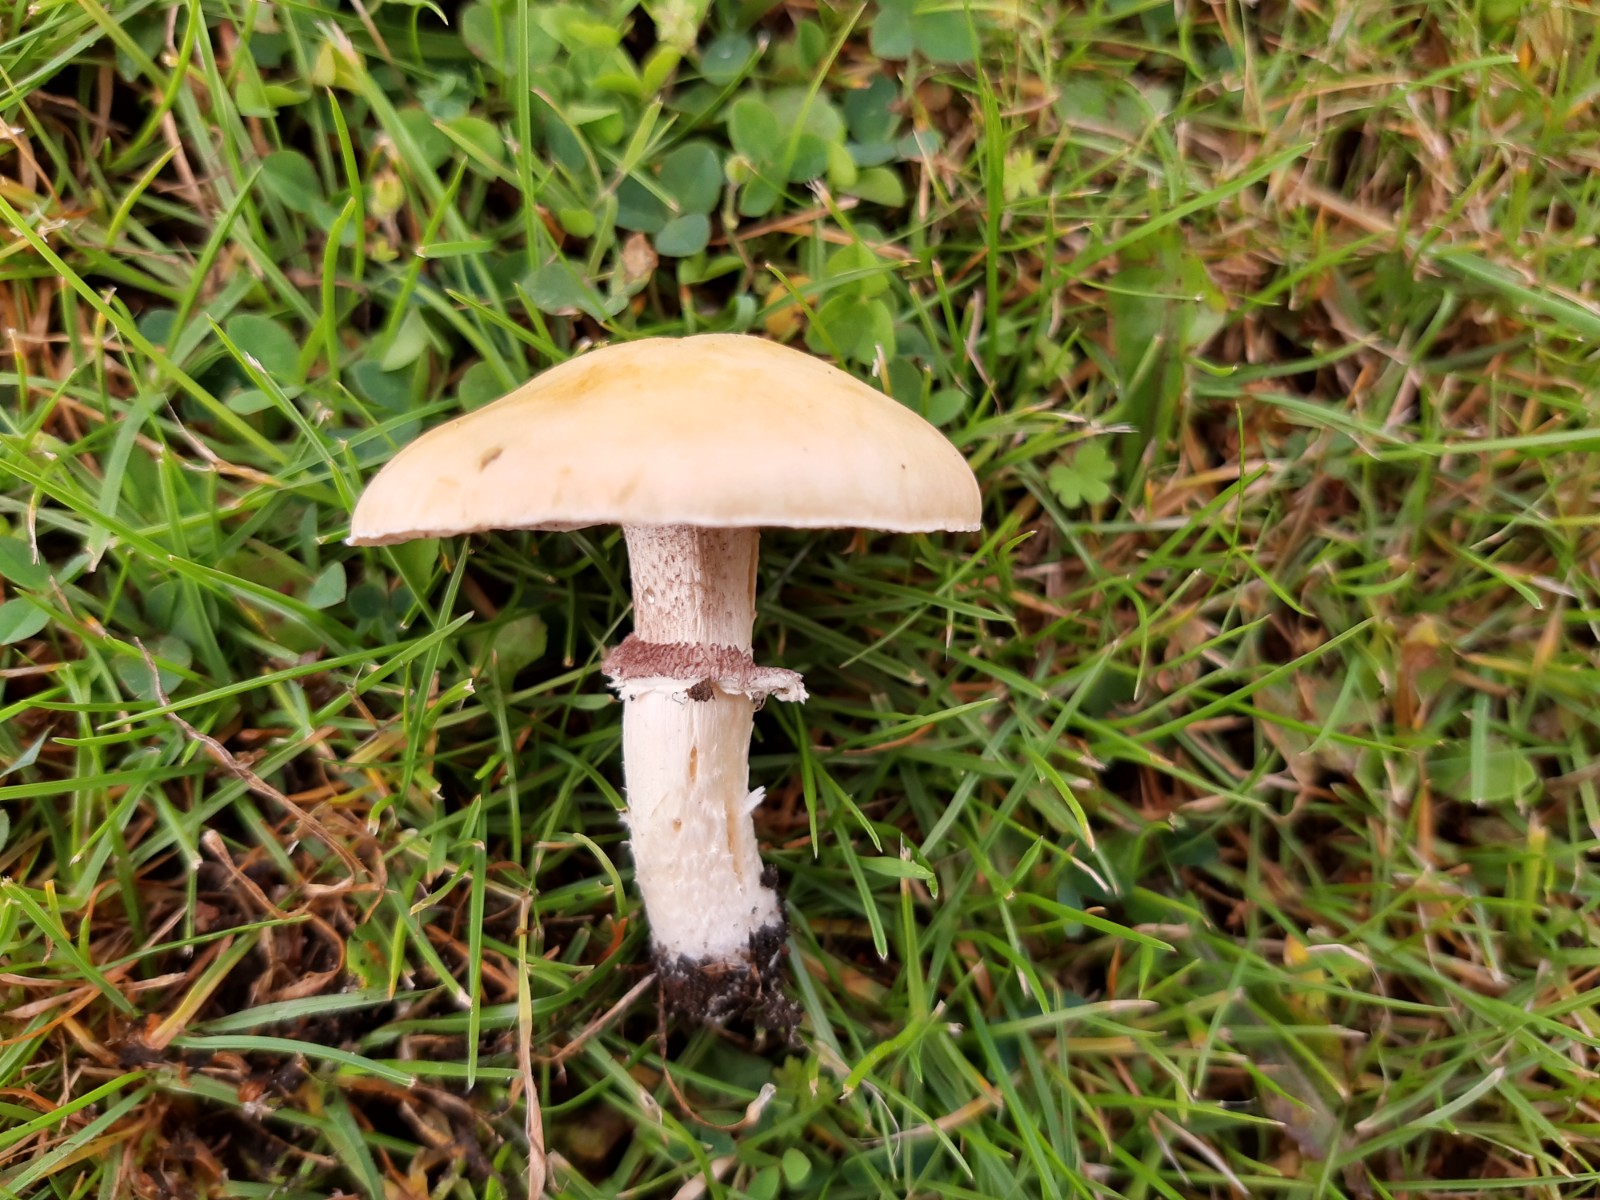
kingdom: Fungi
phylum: Basidiomycota
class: Agaricomycetes
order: Agaricales
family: Hymenogastraceae
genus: Psilocybe
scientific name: Psilocybe coronilla
